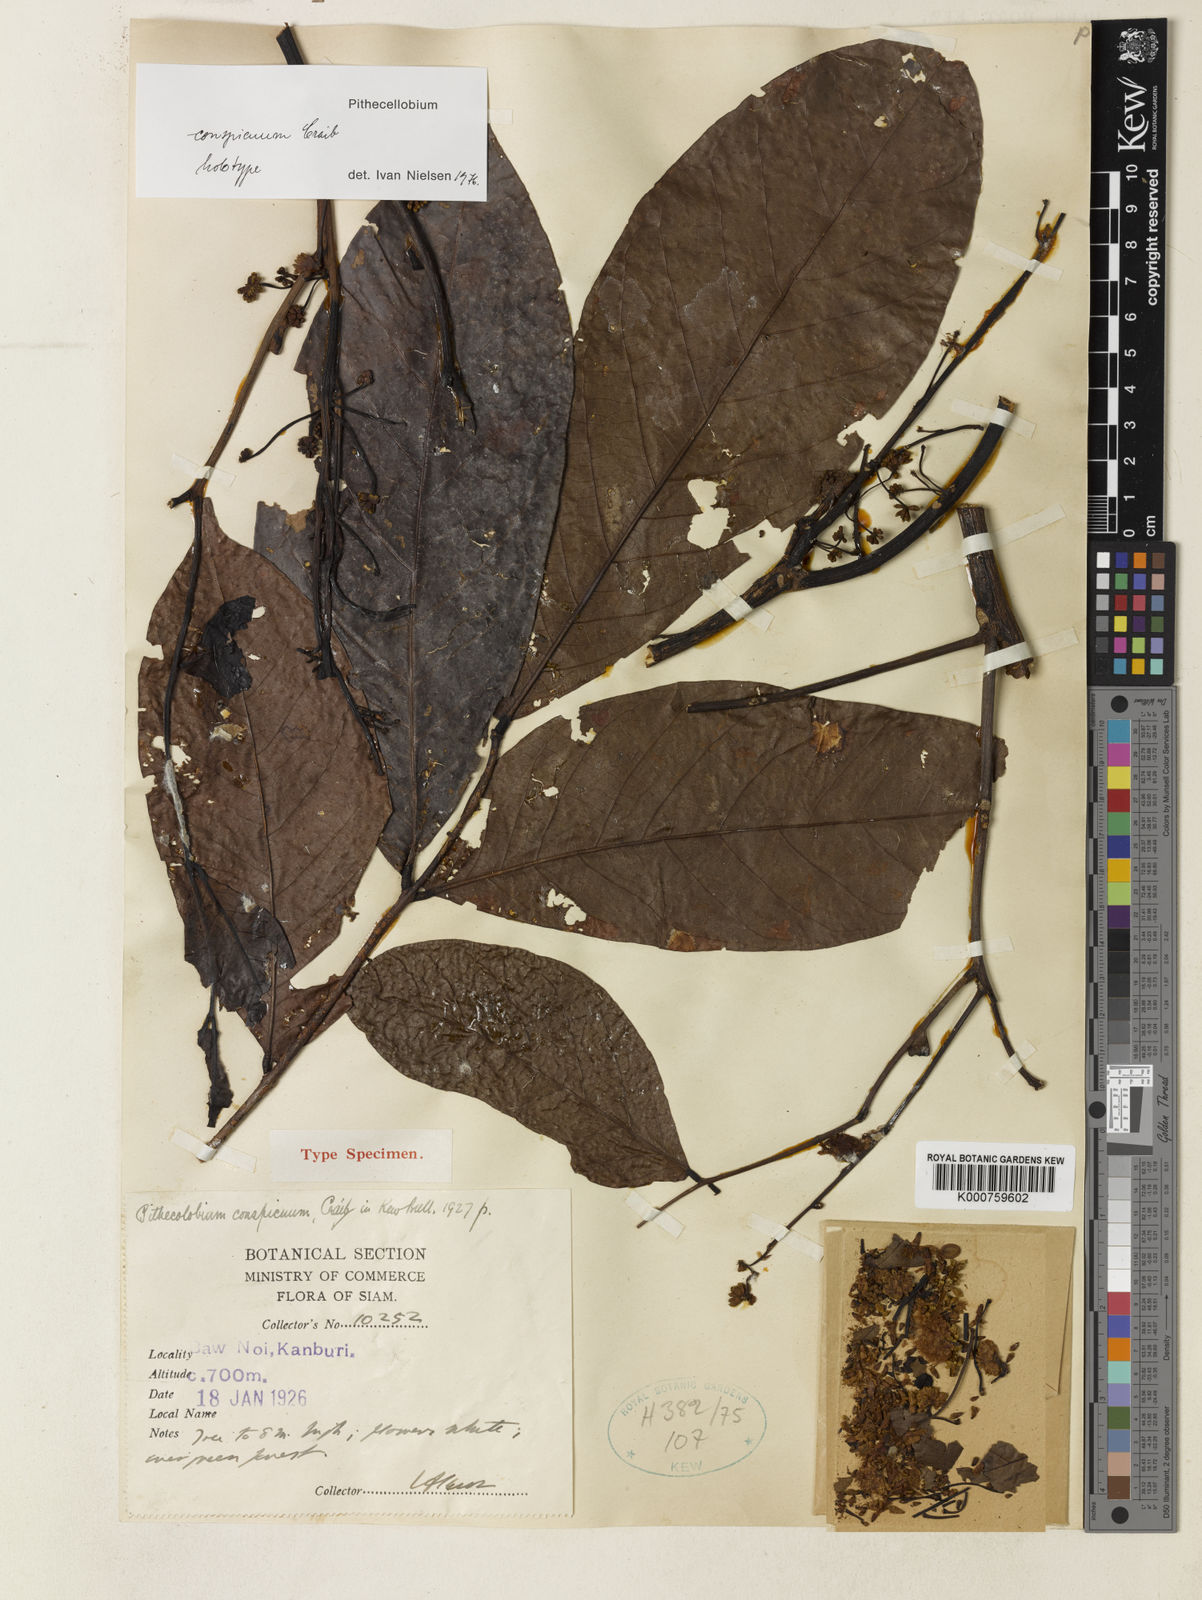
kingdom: Plantae
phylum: Tracheophyta
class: Magnoliopsida
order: Fabales
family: Fabaceae
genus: Archidendron
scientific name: Archidendron quocense
